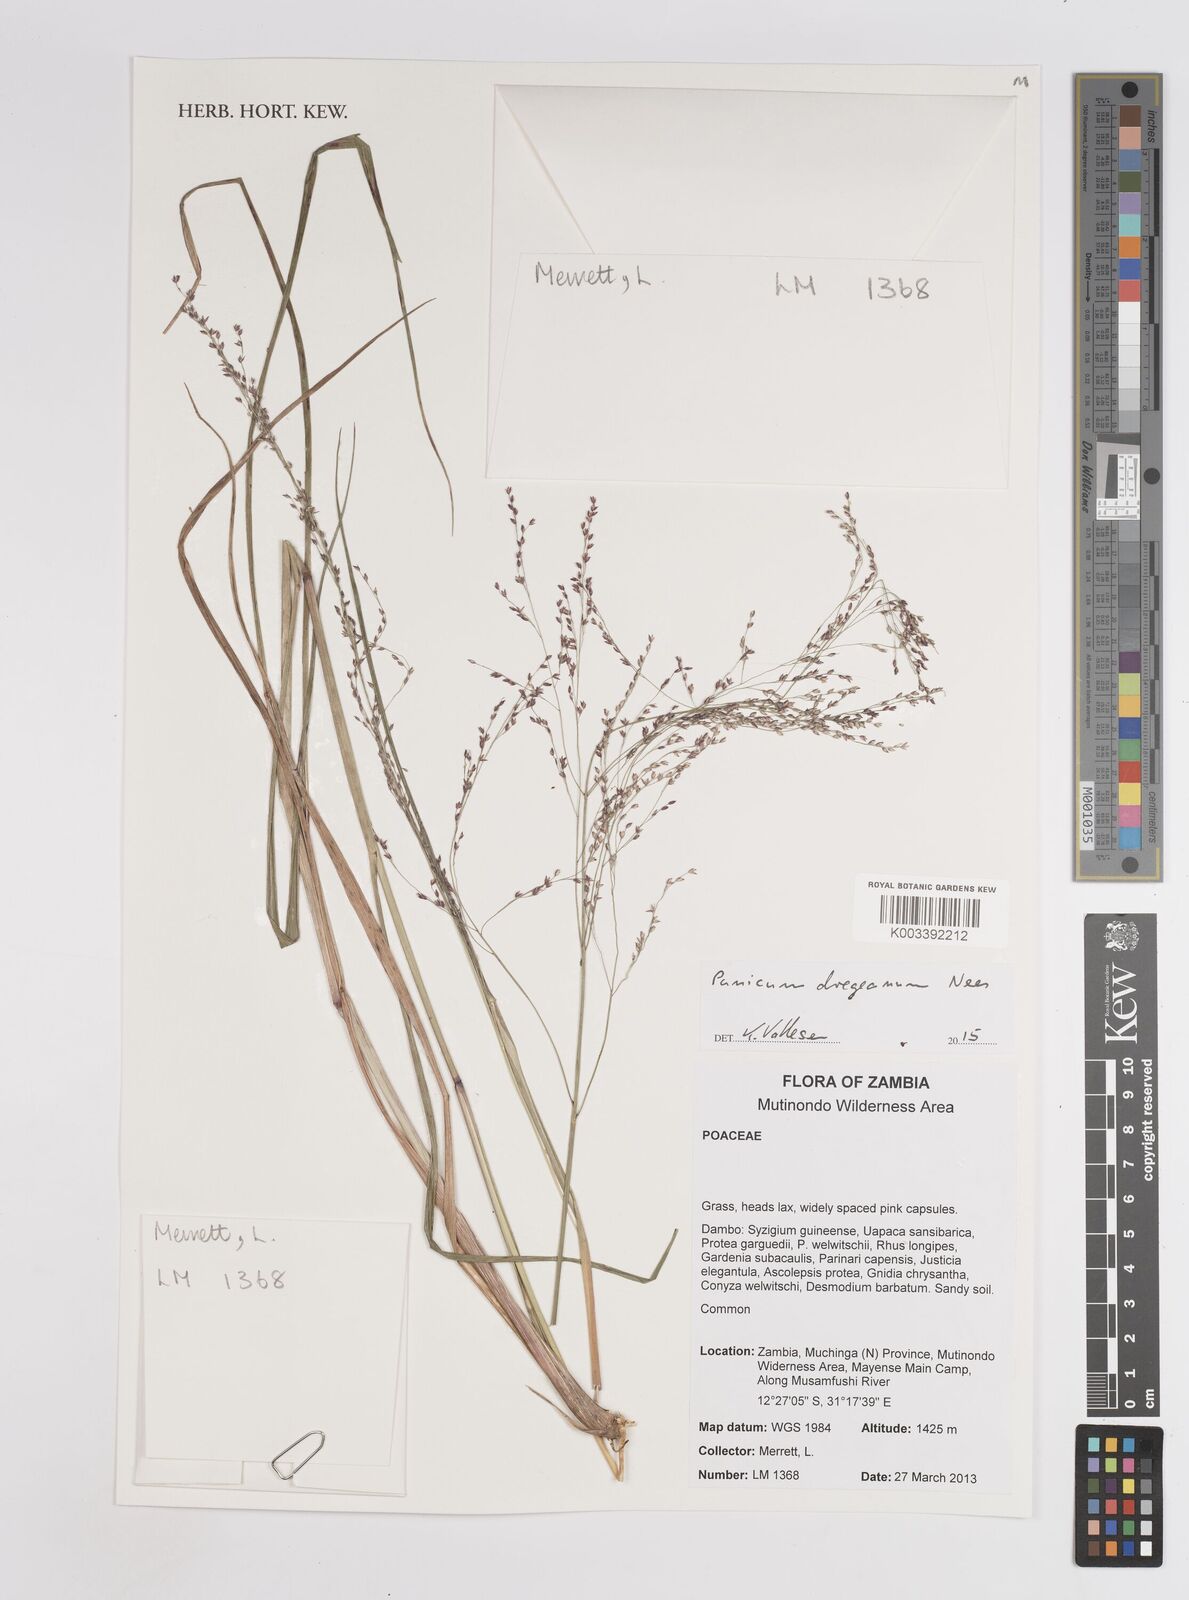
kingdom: Plantae
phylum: Tracheophyta
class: Liliopsida
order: Poales
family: Poaceae
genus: Panicum
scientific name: Panicum dregeanum
